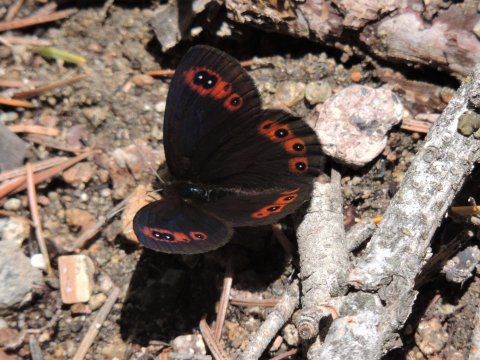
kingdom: Animalia
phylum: Arthropoda
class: Insecta
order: Lepidoptera
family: Nymphalidae
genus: Erebia
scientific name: Erebia epipsodea
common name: Common Alpine
